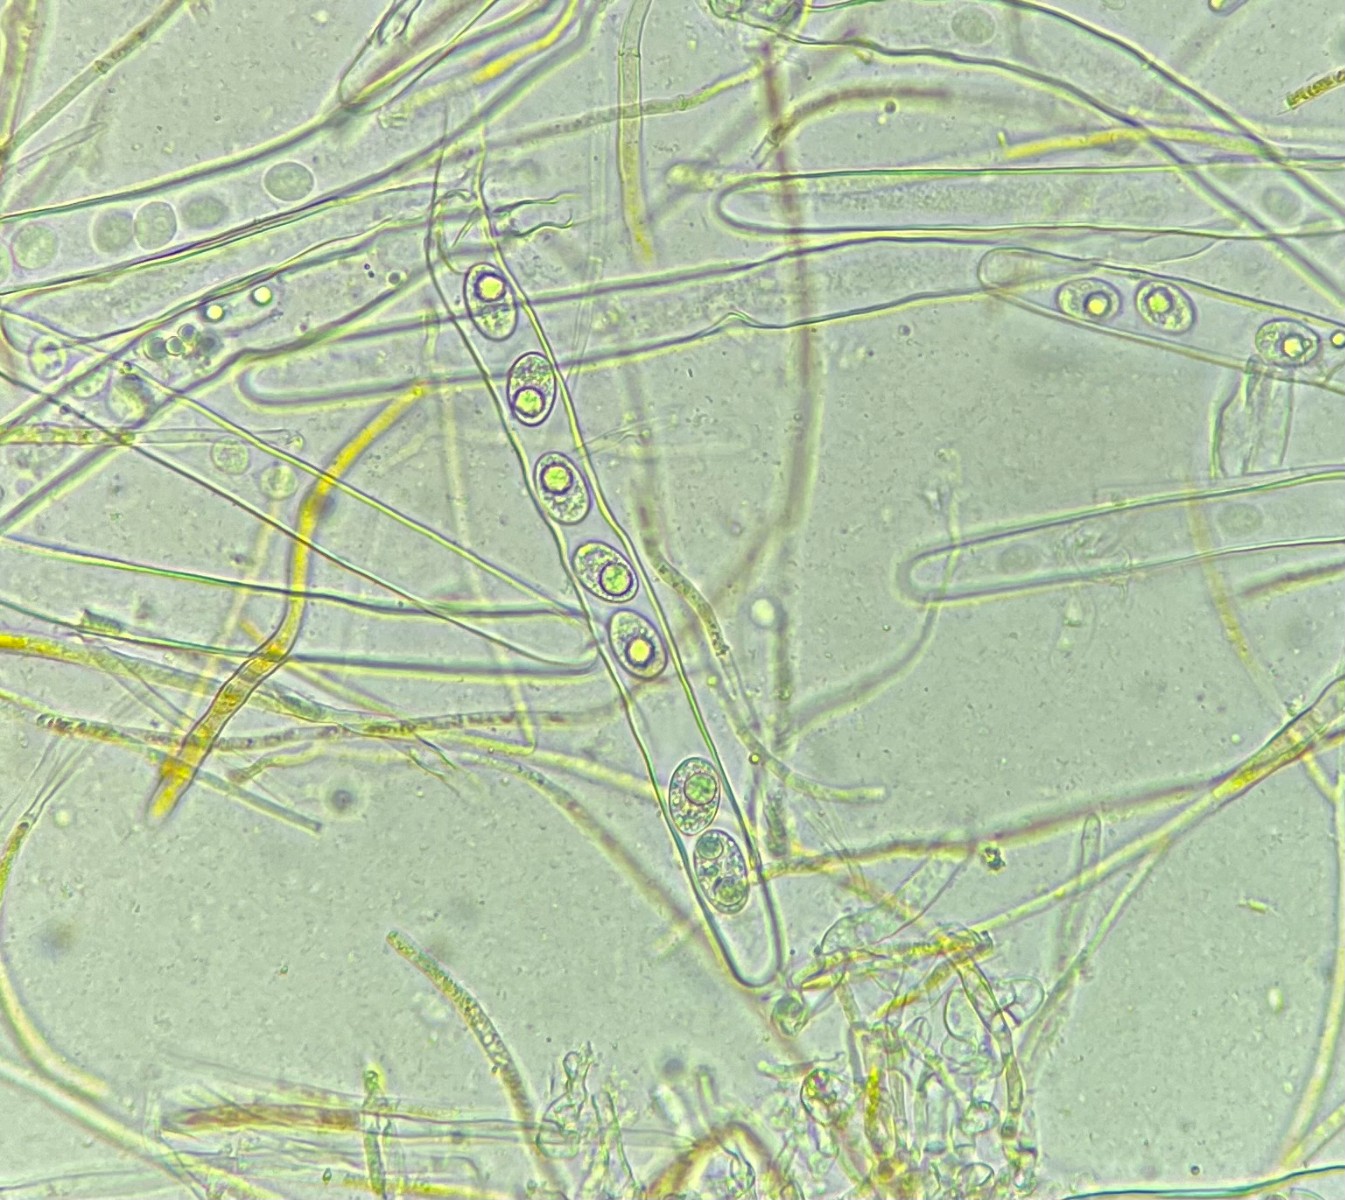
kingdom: Fungi
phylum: Ascomycota
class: Pezizomycetes
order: Pezizales
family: Pyronemataceae
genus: Octospora
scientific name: Octospora excipulata
